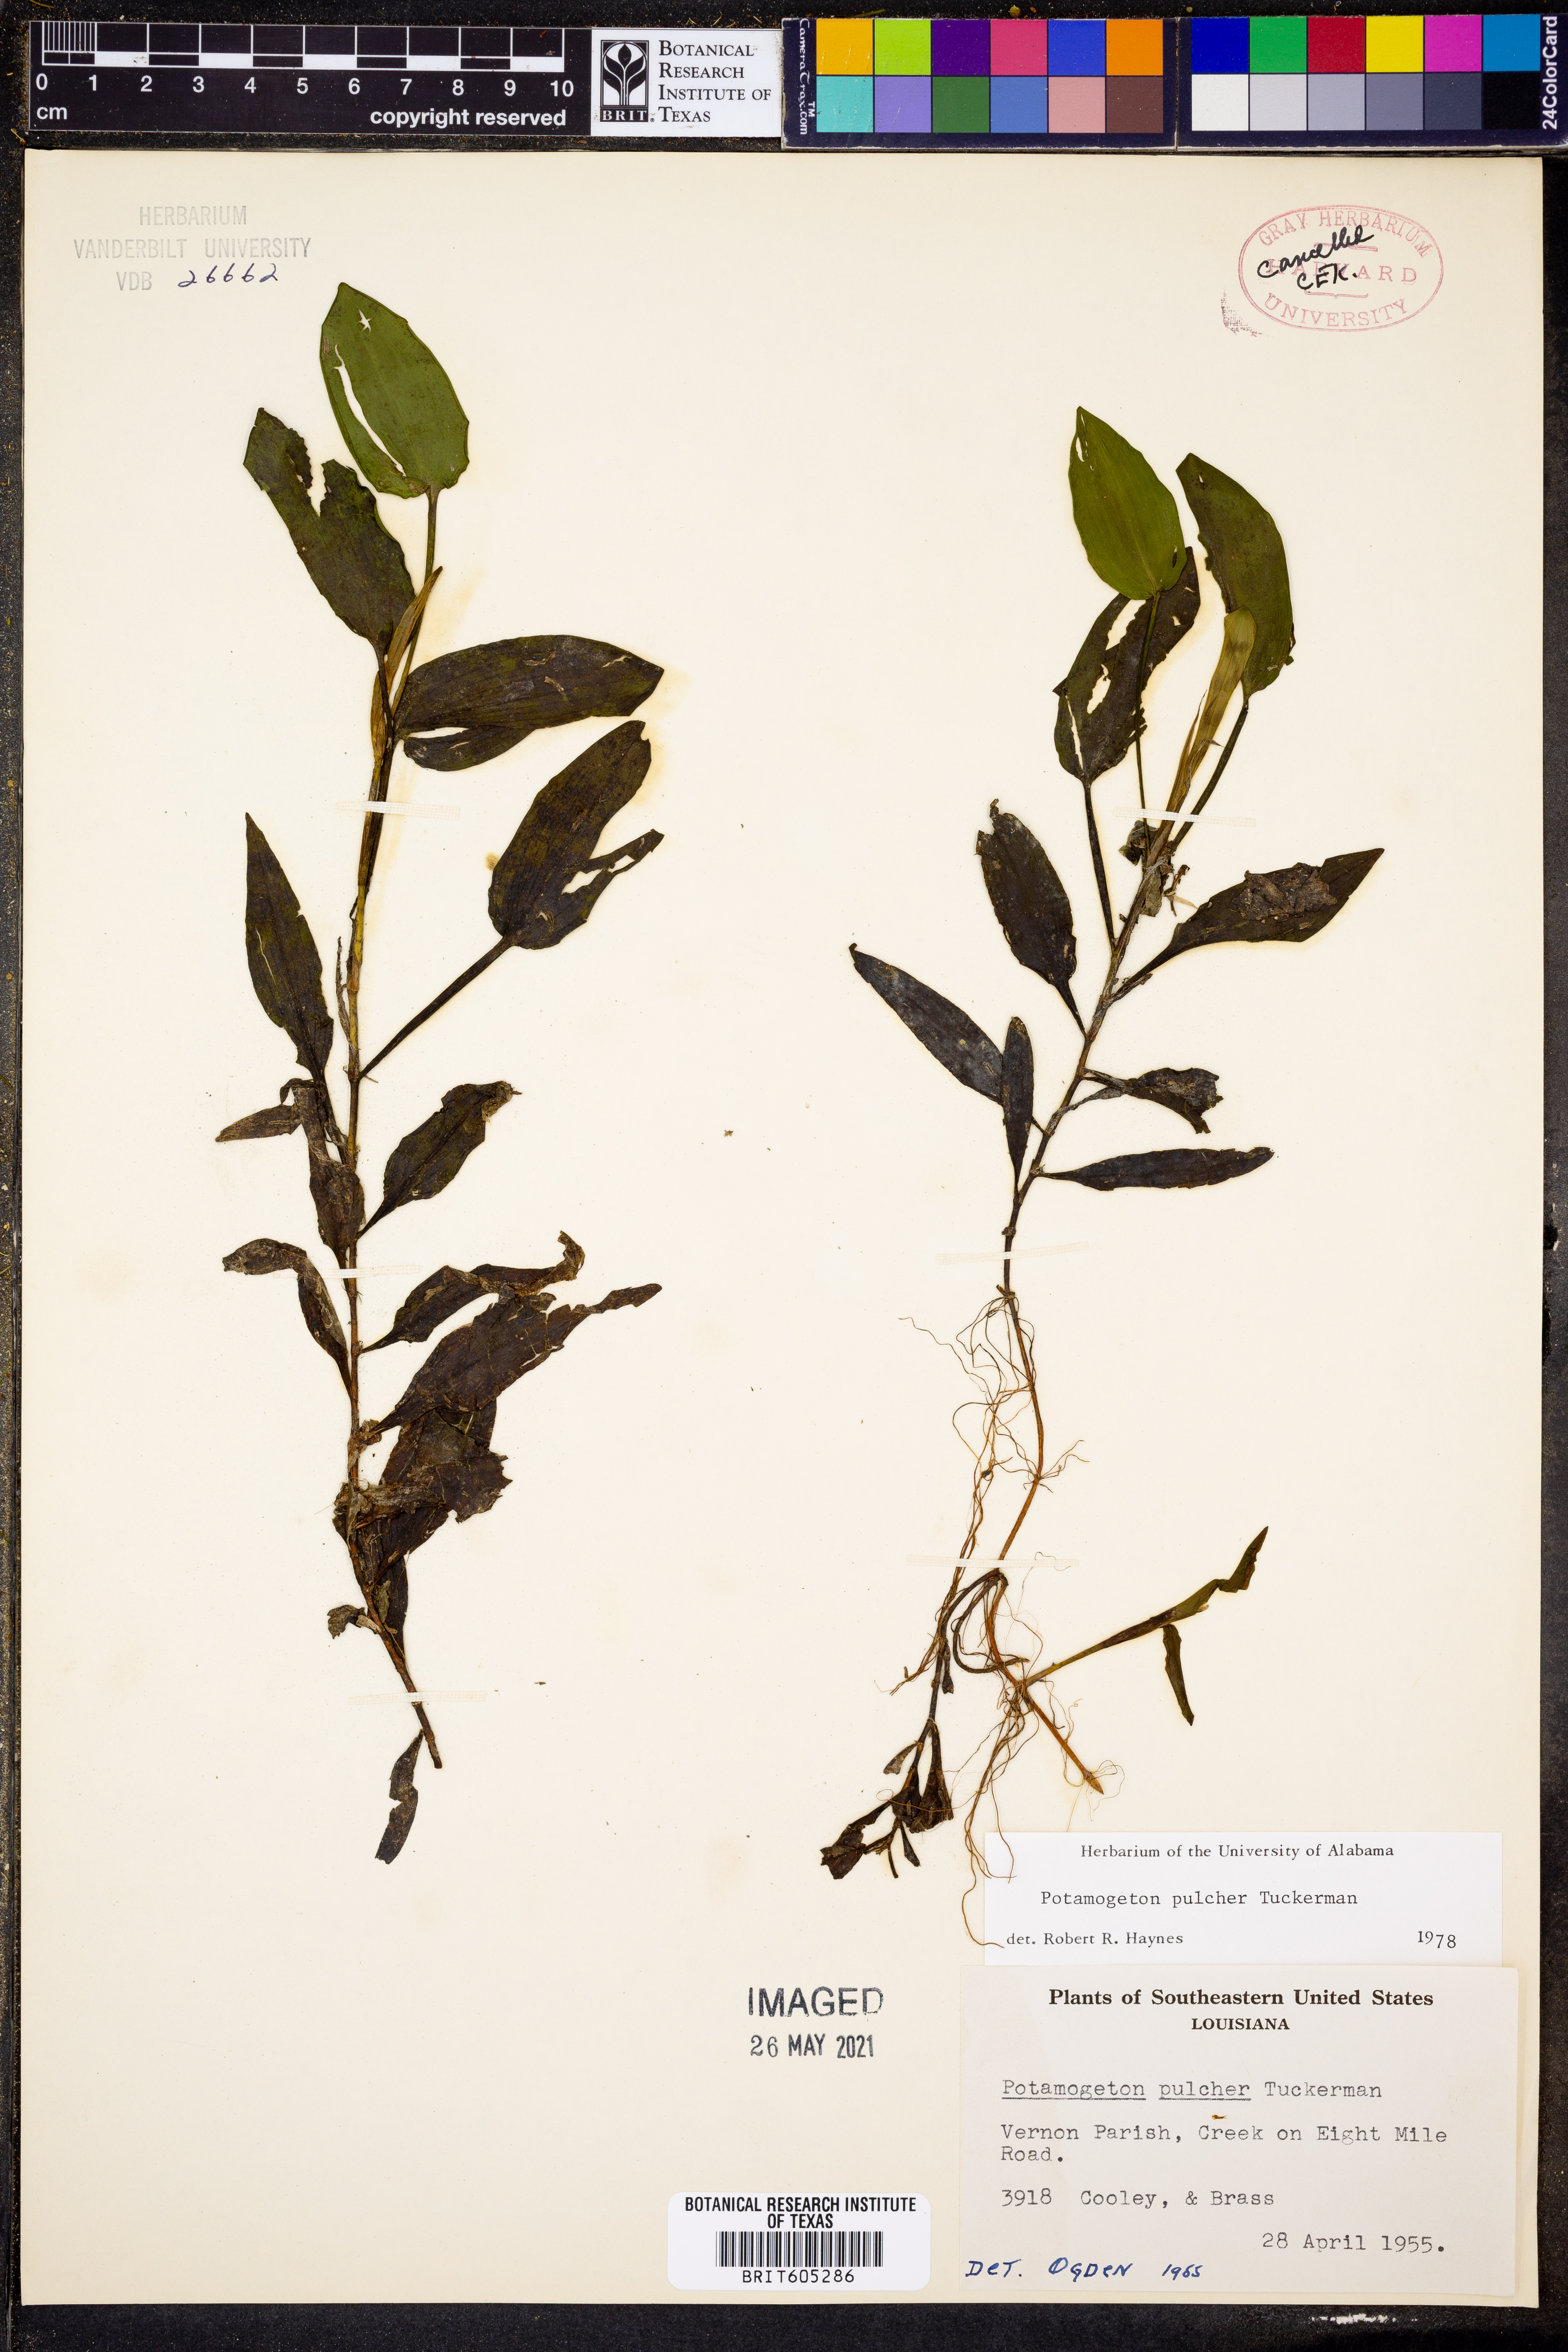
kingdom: Plantae
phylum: Tracheophyta
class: Liliopsida
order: Alismatales
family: Potamogetonaceae
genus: Potamogeton
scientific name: Potamogeton pulcher
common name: Heart-leaved pondweed
